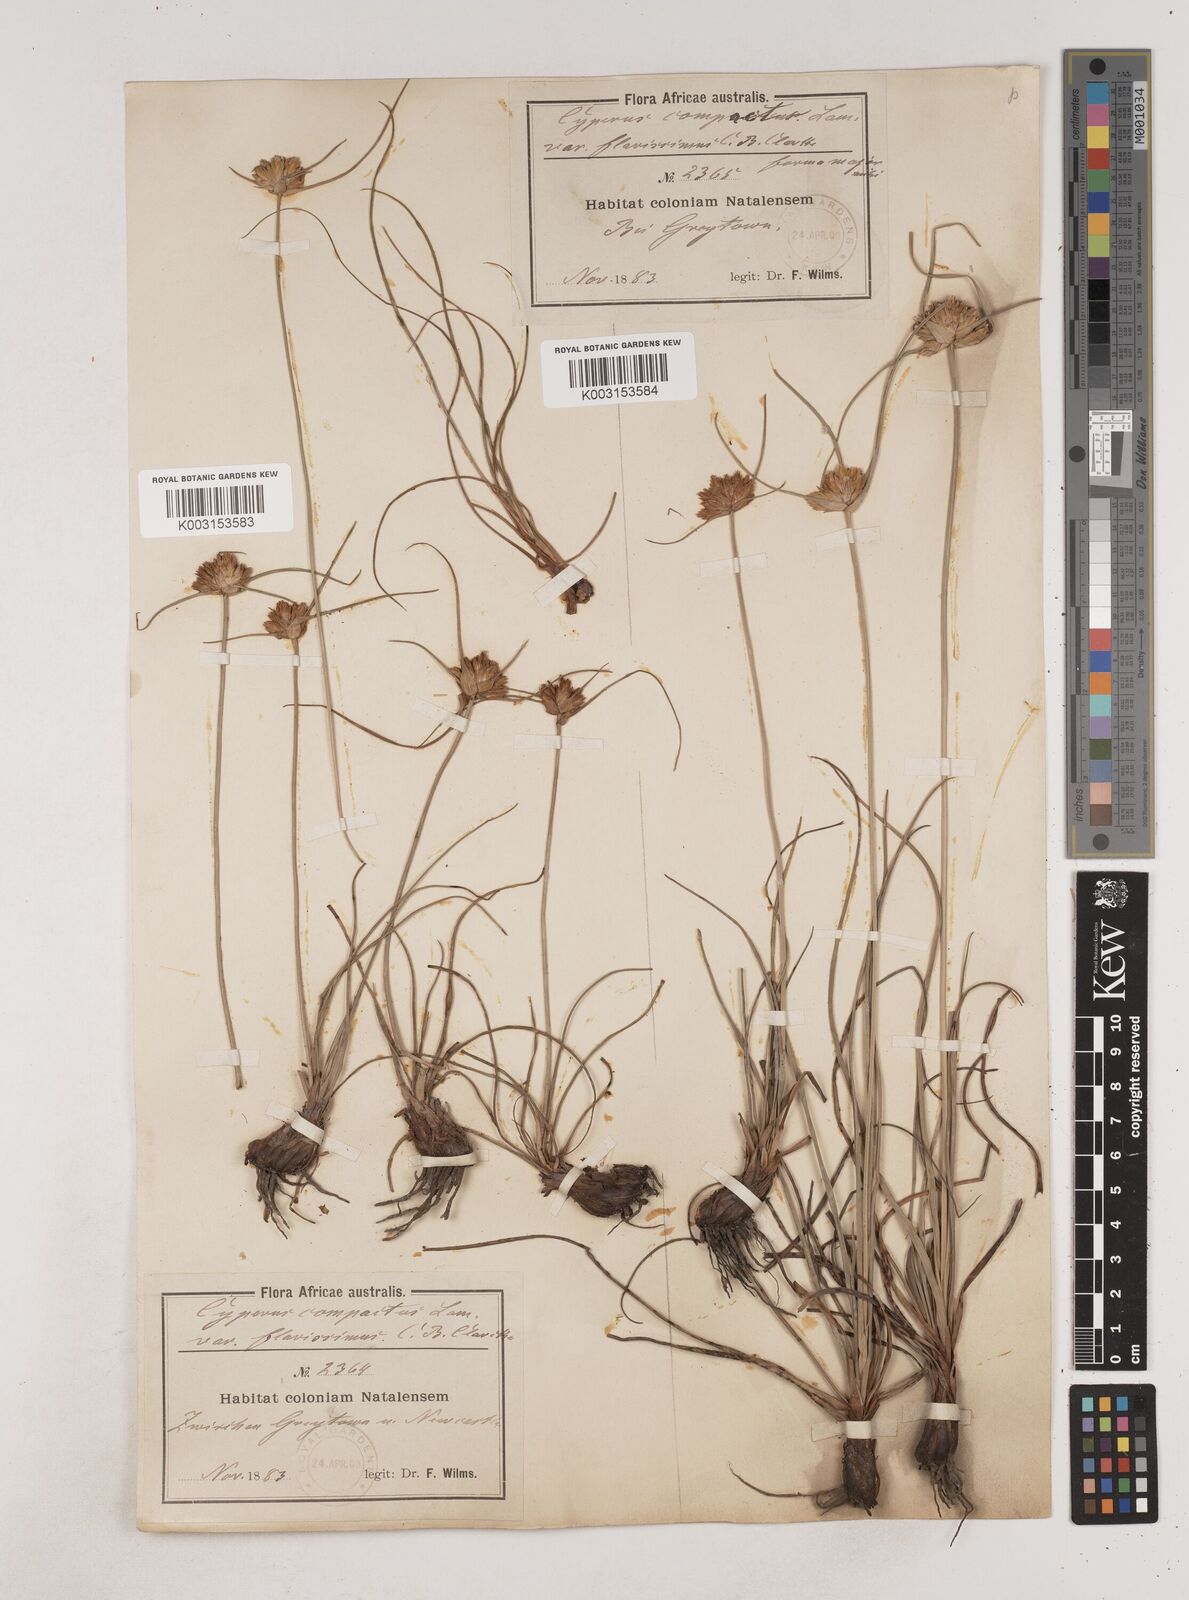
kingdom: Plantae
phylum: Tracheophyta
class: Liliopsida
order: Poales
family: Cyperaceae
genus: Cyperus
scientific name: Cyperus niveus
